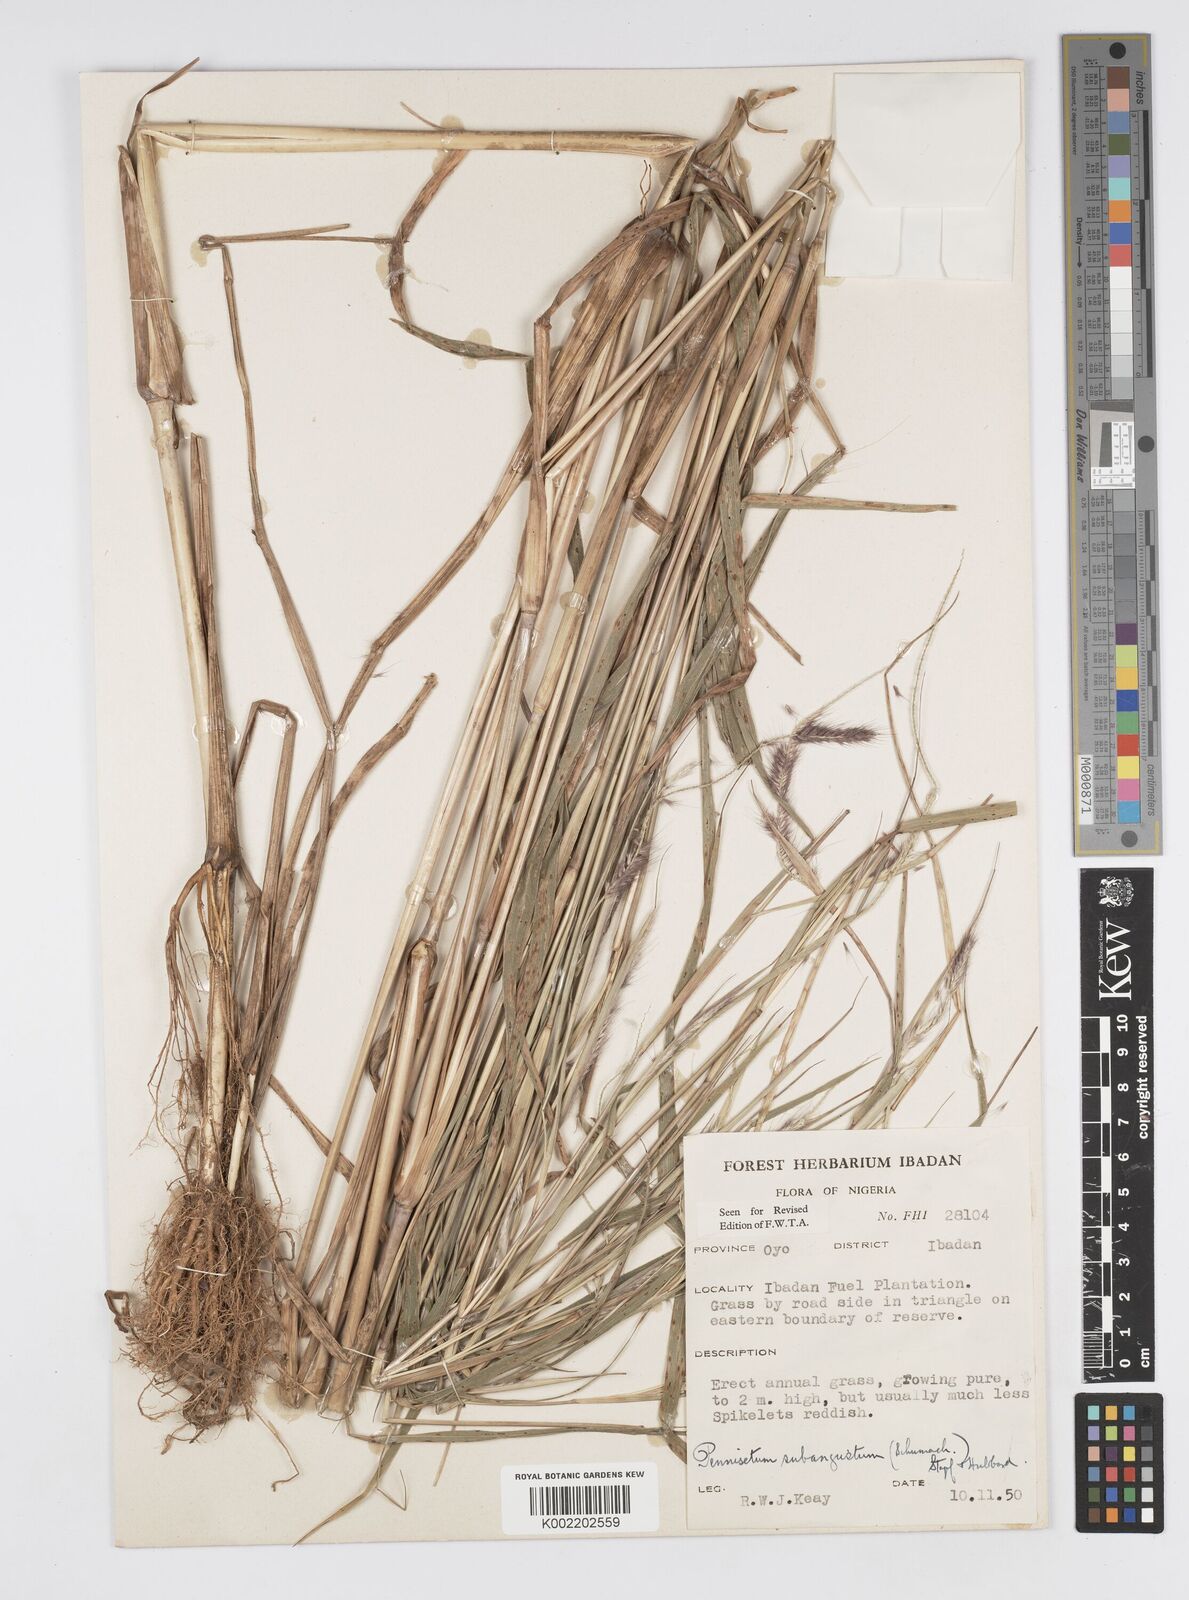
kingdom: Plantae
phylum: Tracheophyta
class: Liliopsida
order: Poales
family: Poaceae
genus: Setaria
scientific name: Setaria parviflora
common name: Knotroot bristle-grass
